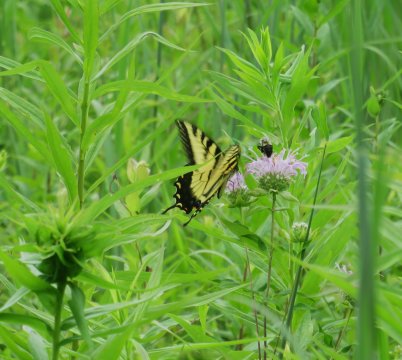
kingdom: Animalia
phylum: Arthropoda
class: Insecta
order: Lepidoptera
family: Papilionidae
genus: Pterourus
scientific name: Pterourus glaucus
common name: Eastern Tiger Swallowtail
